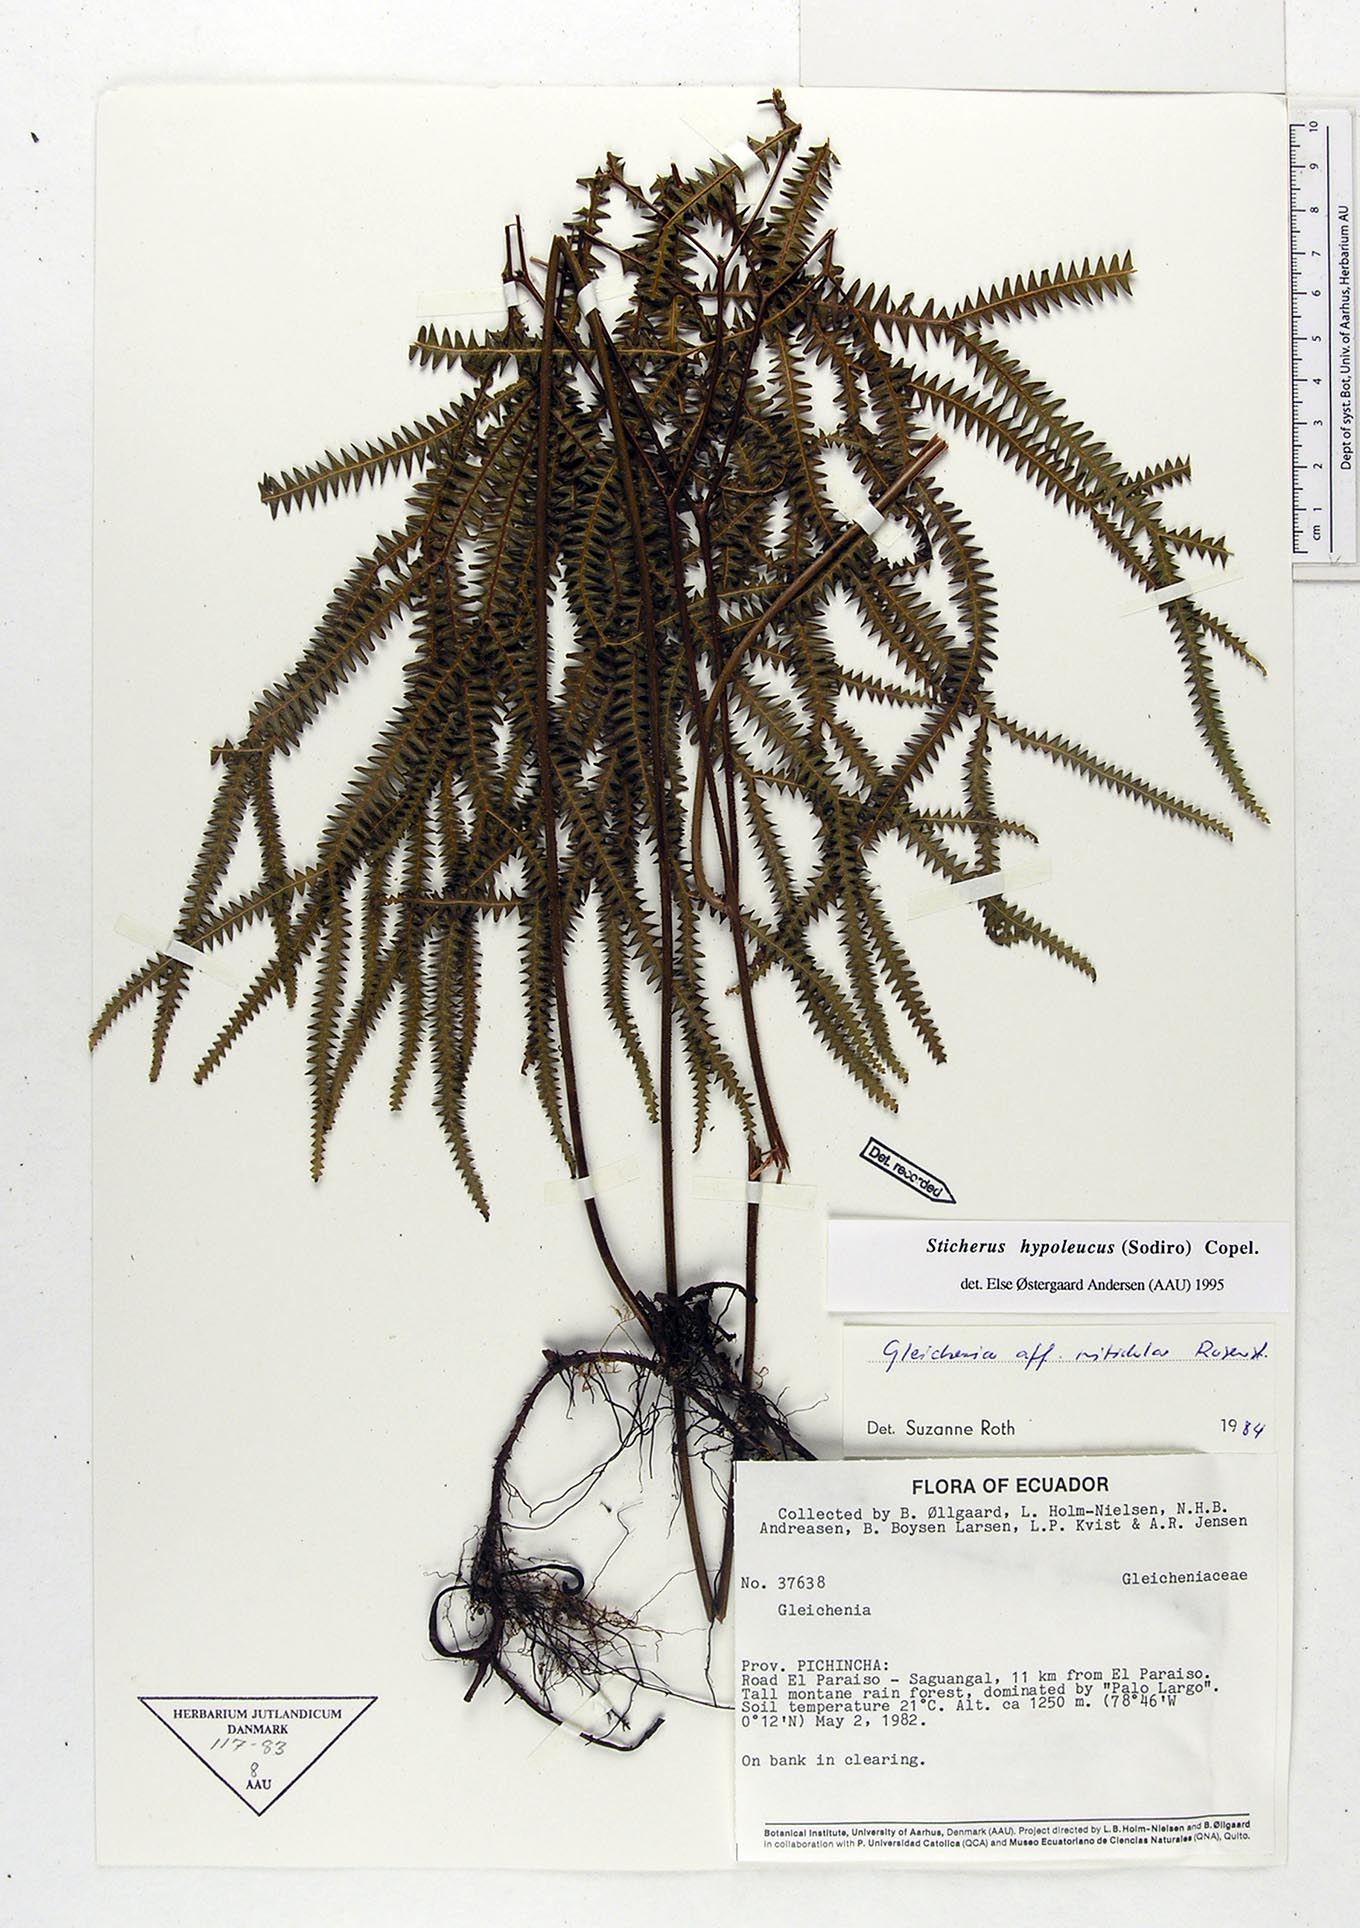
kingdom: Plantae
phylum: Tracheophyta
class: Polypodiopsida
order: Gleicheniales
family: Gleicheniaceae
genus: Sticherus
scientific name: Sticherus hypoleucus
